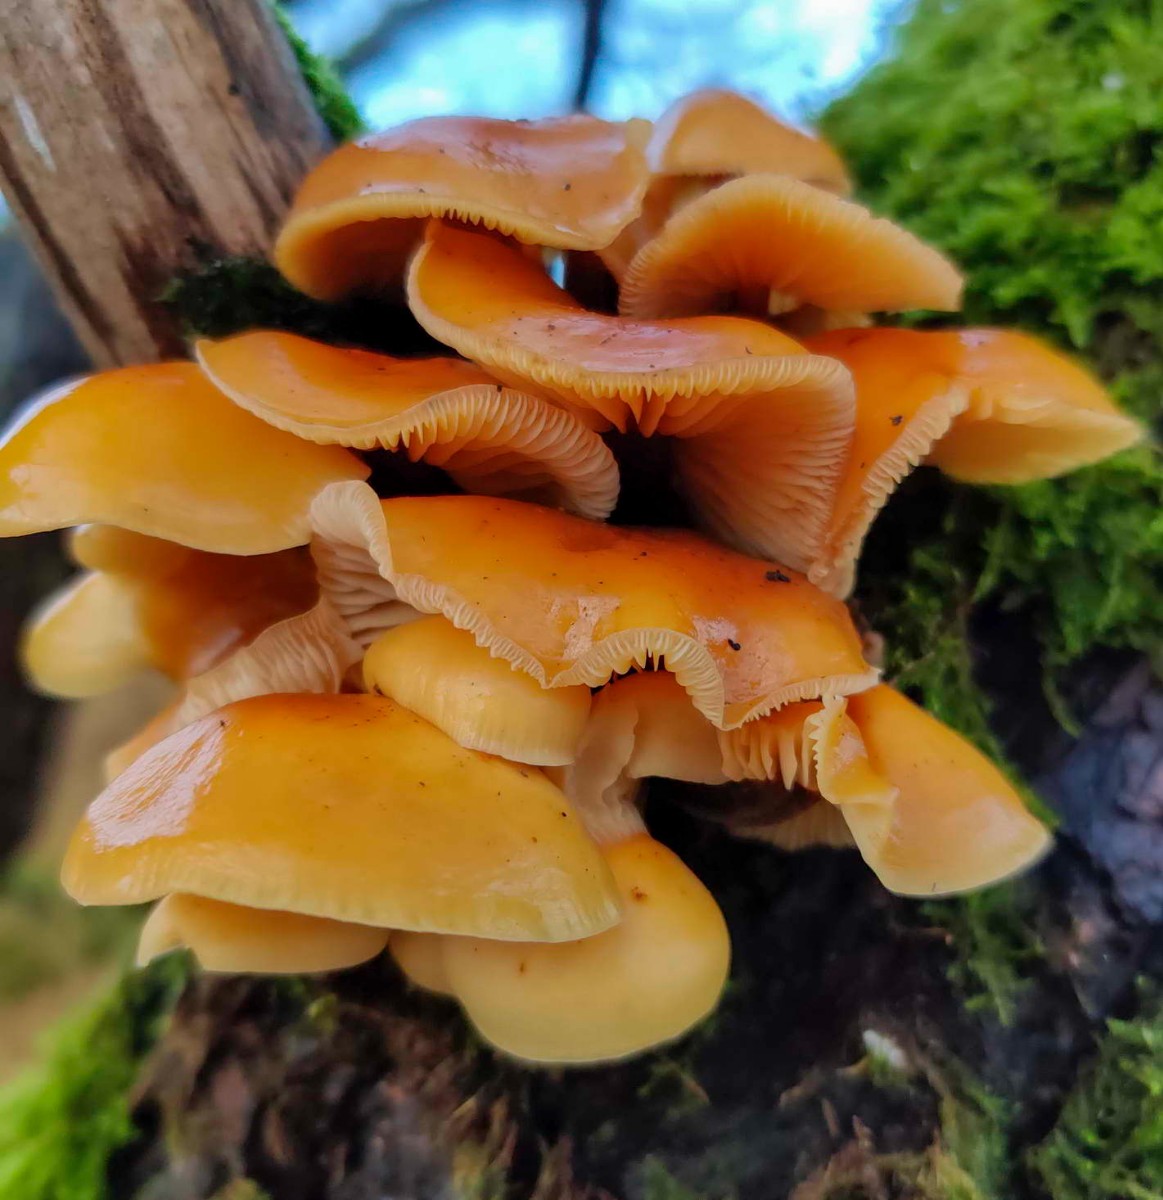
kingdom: Fungi
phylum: Basidiomycota
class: Agaricomycetes
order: Agaricales
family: Physalacriaceae
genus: Flammulina
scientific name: Flammulina elastica
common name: pile-fløjlsfod
